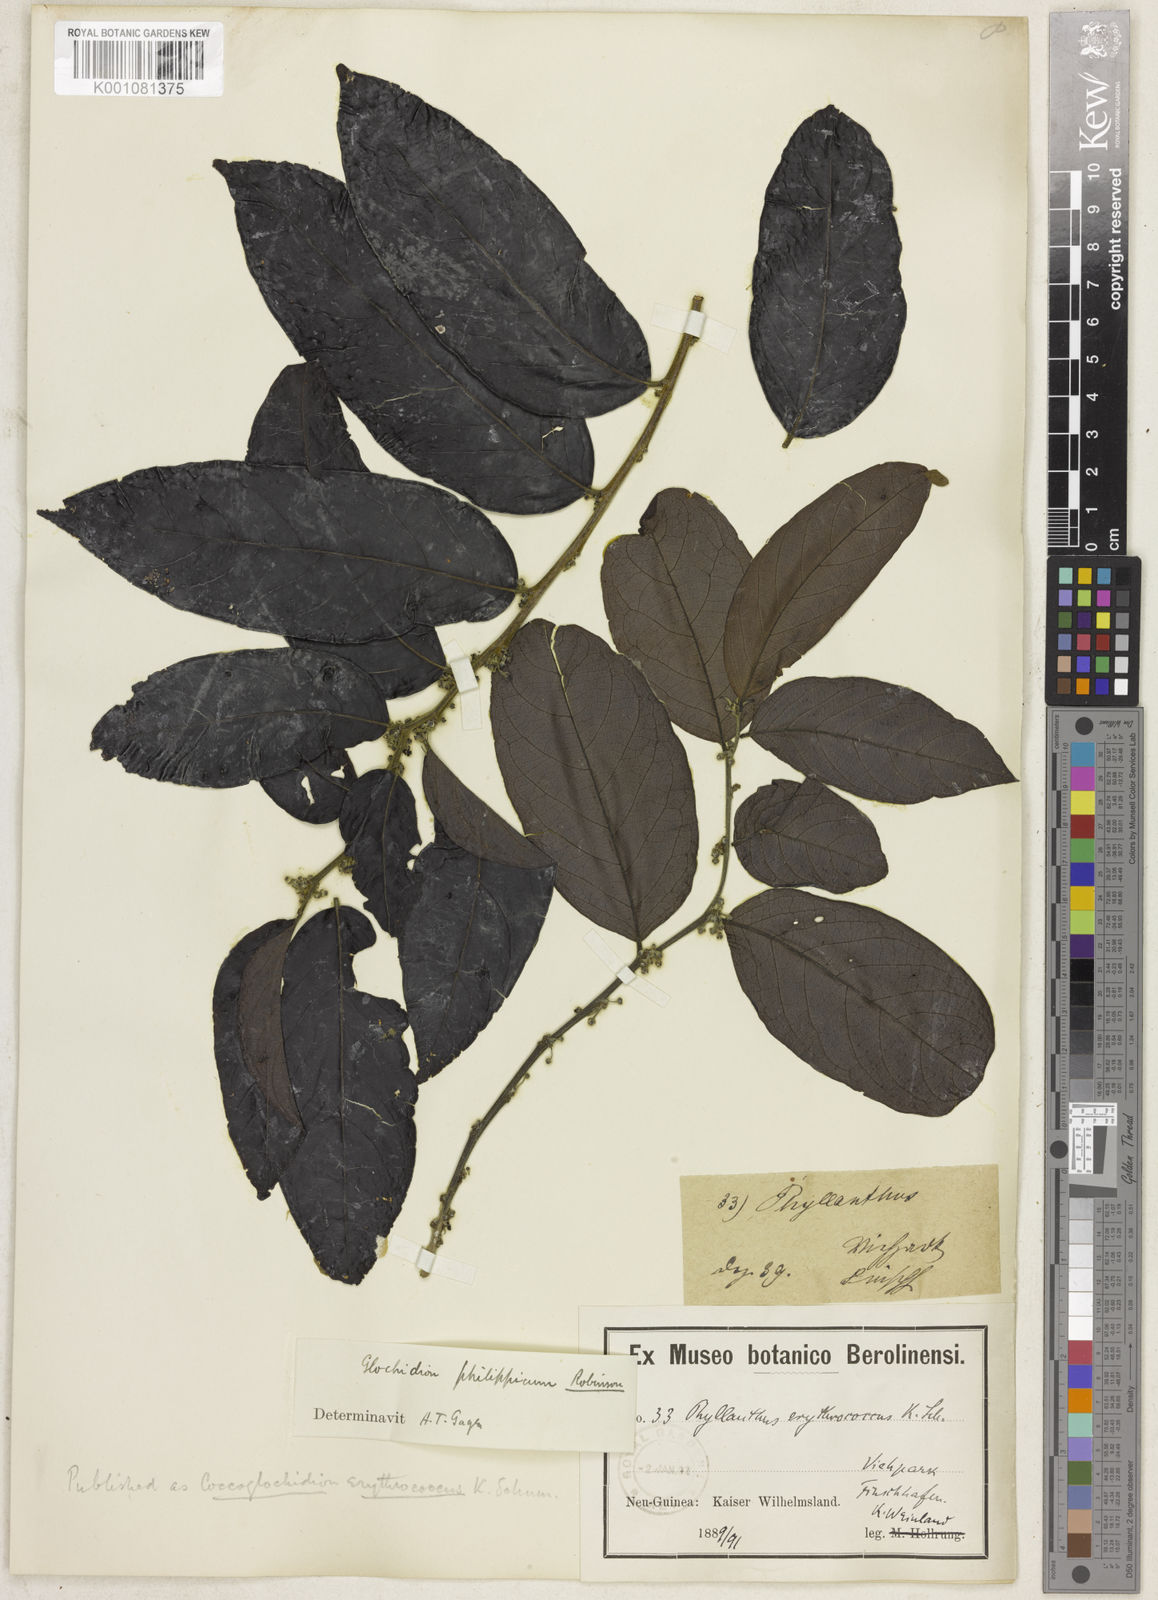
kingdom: Plantae
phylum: Tracheophyta
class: Magnoliopsida
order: Malpighiales
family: Phyllanthaceae
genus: Glochidion
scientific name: Glochidion philippicum
